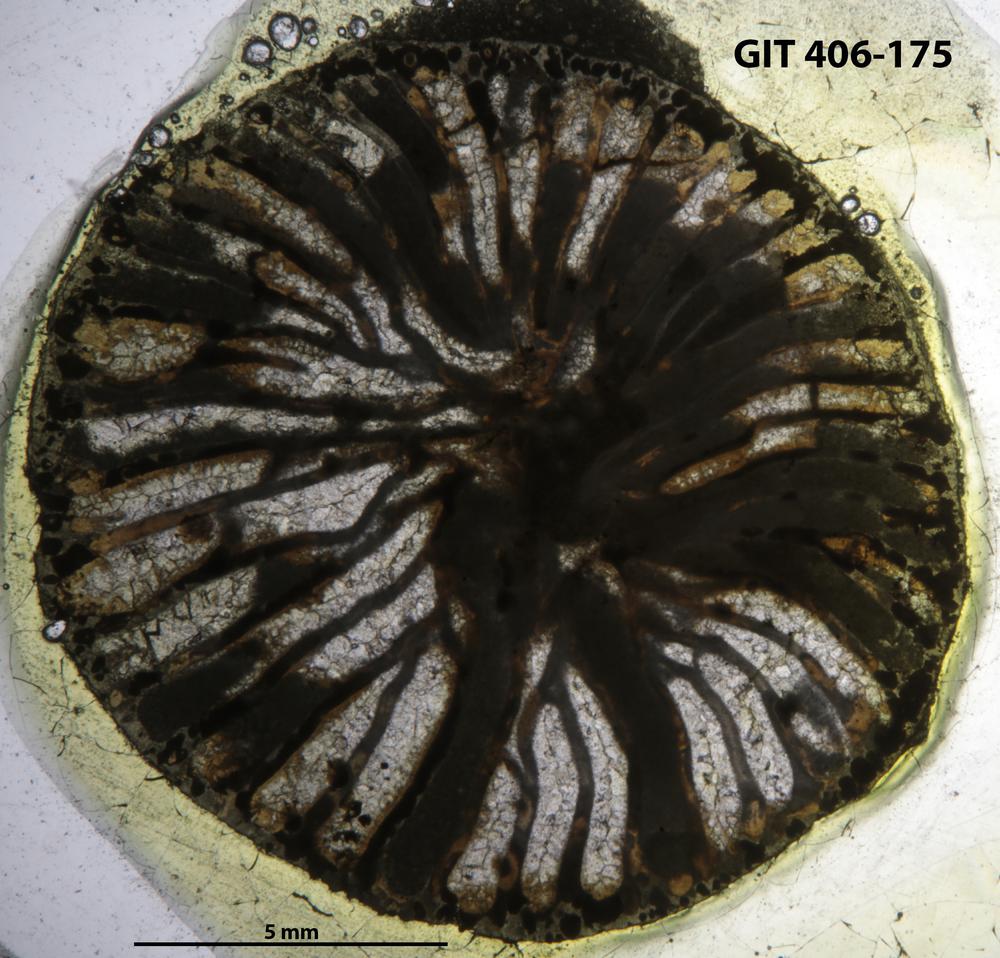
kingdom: Animalia
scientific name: Animalia
